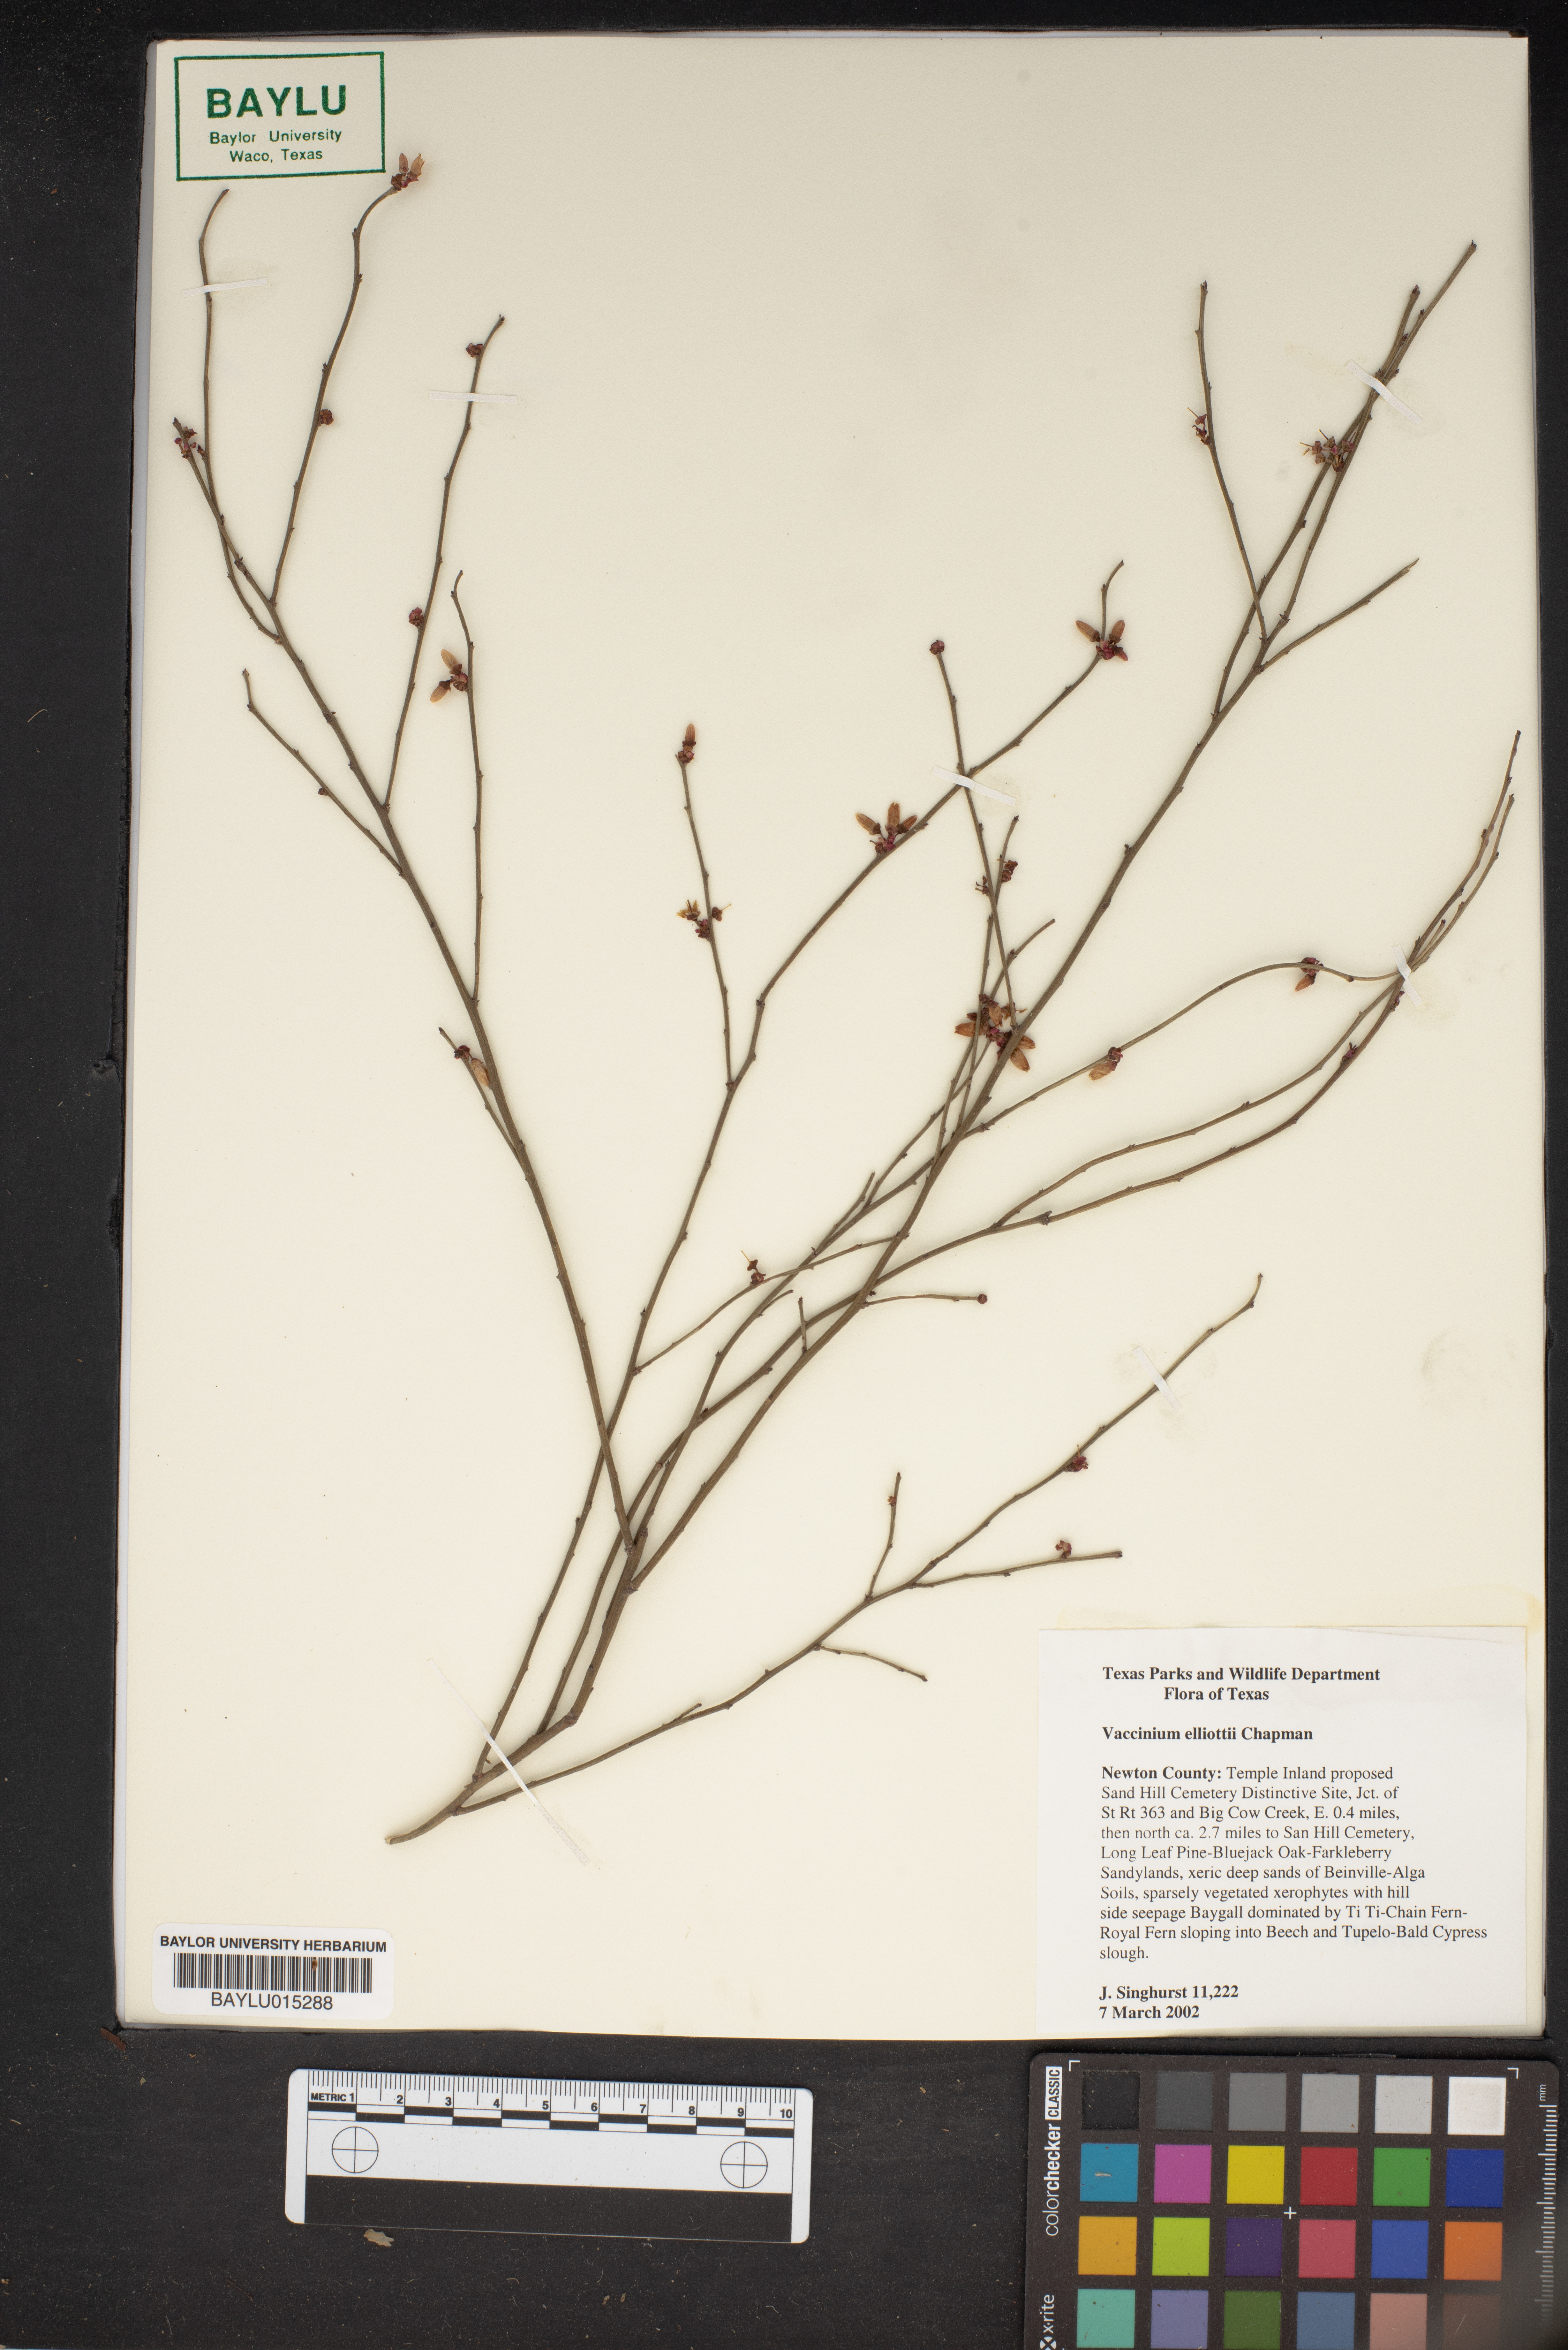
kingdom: Plantae
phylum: Tracheophyta
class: Magnoliopsida
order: Ericales
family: Ericaceae
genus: Vaccinium
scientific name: Vaccinium corymbosum
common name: Blueberry
